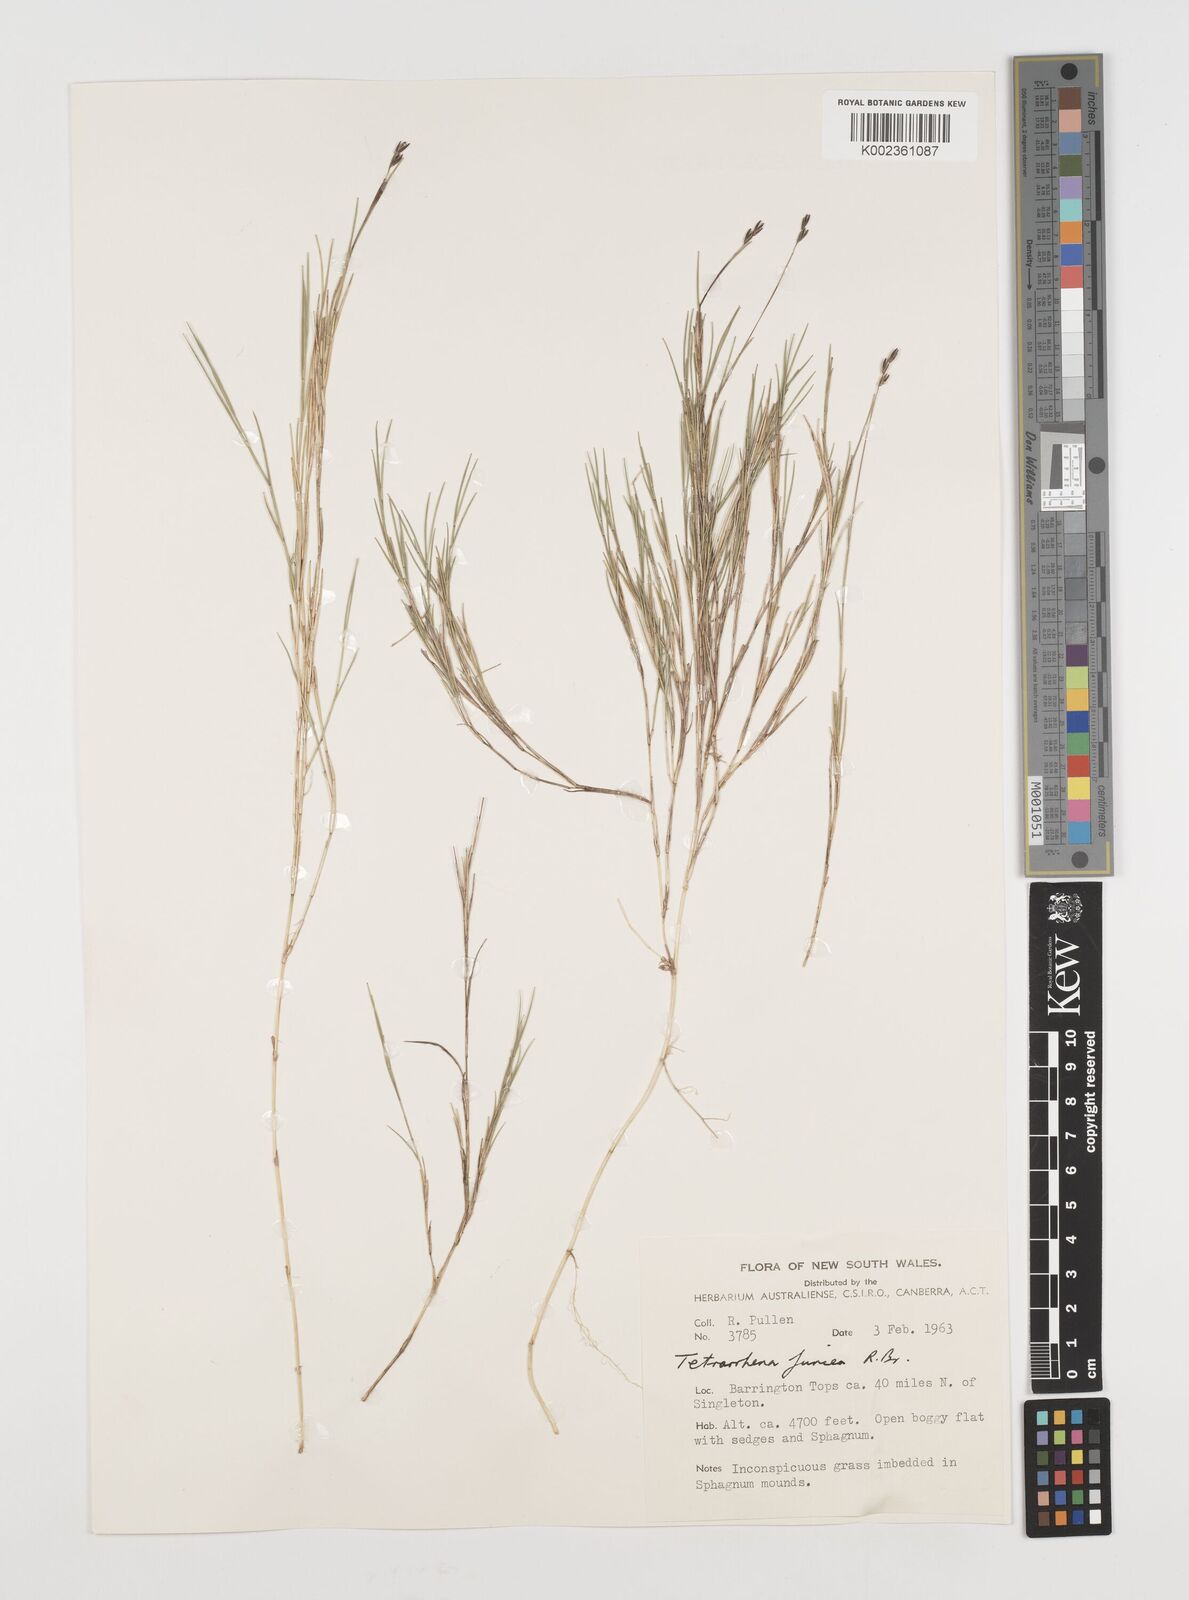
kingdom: Plantae
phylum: Tracheophyta
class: Liliopsida
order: Poales
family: Poaceae
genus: Tetrarrhena
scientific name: Tetrarrhena juncea
